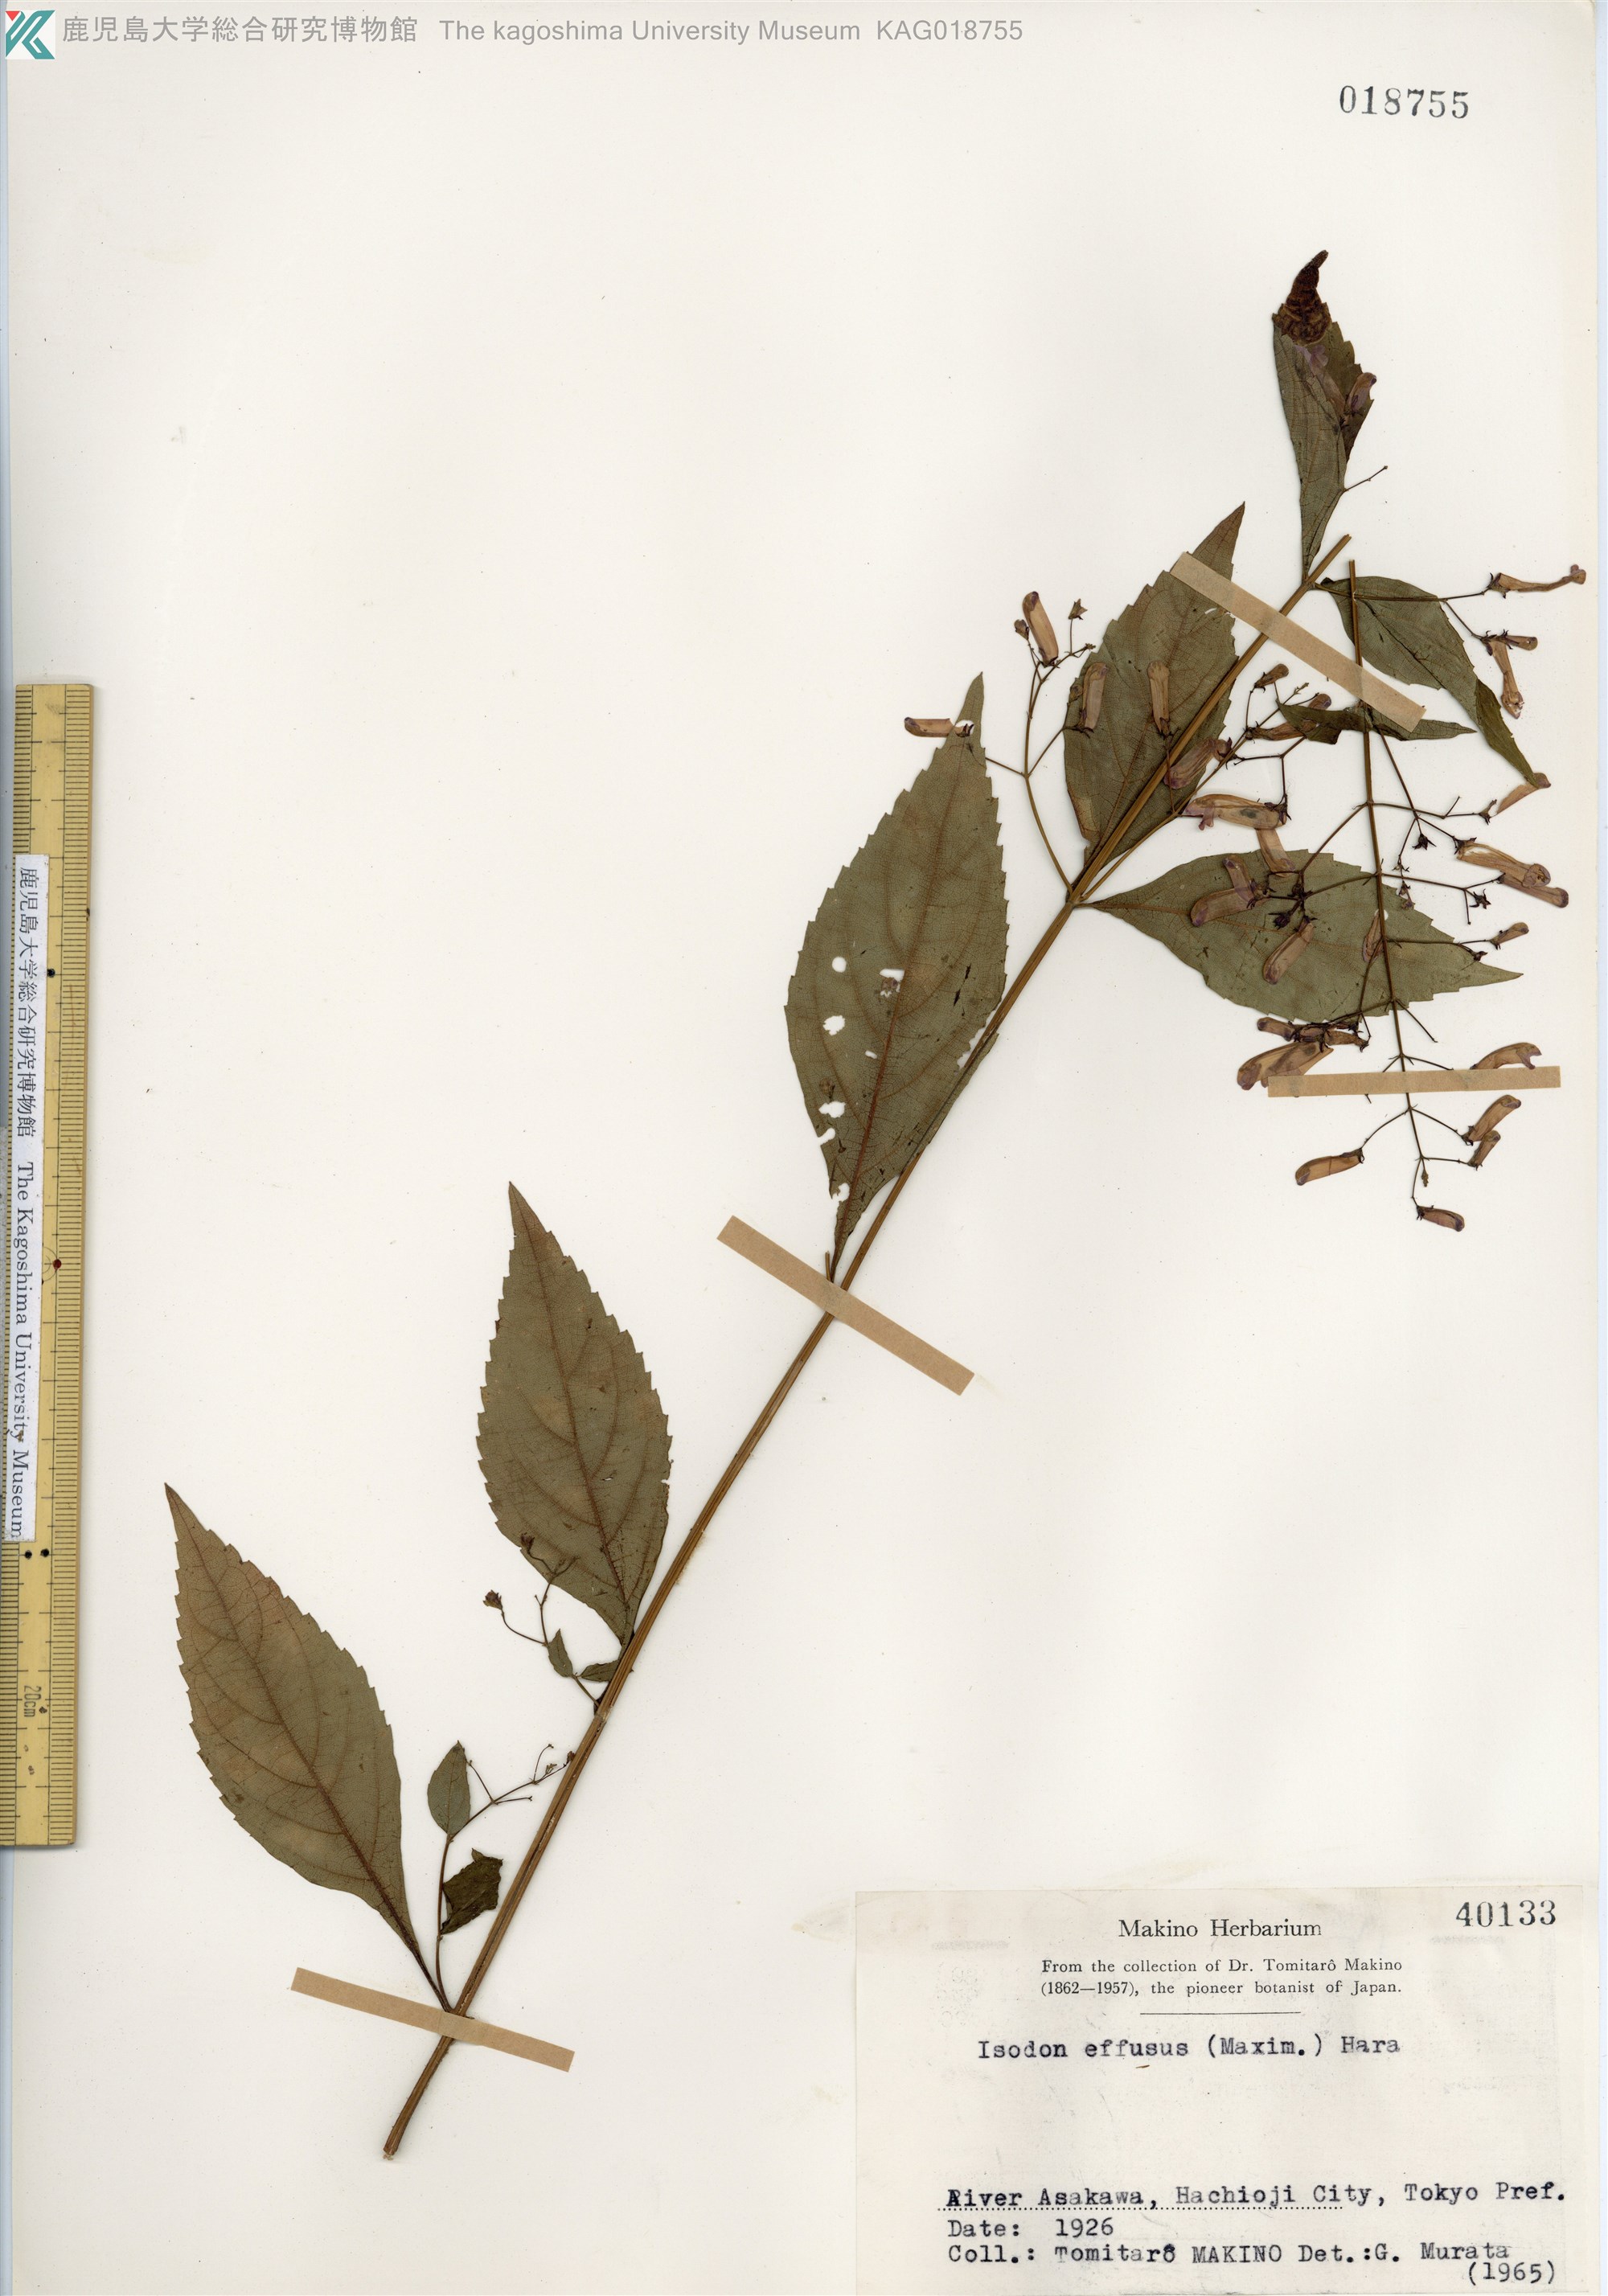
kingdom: Plantae
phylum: Tracheophyta
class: Magnoliopsida
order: Lamiales
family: Lamiaceae
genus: Isodon
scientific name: Isodon effusus
